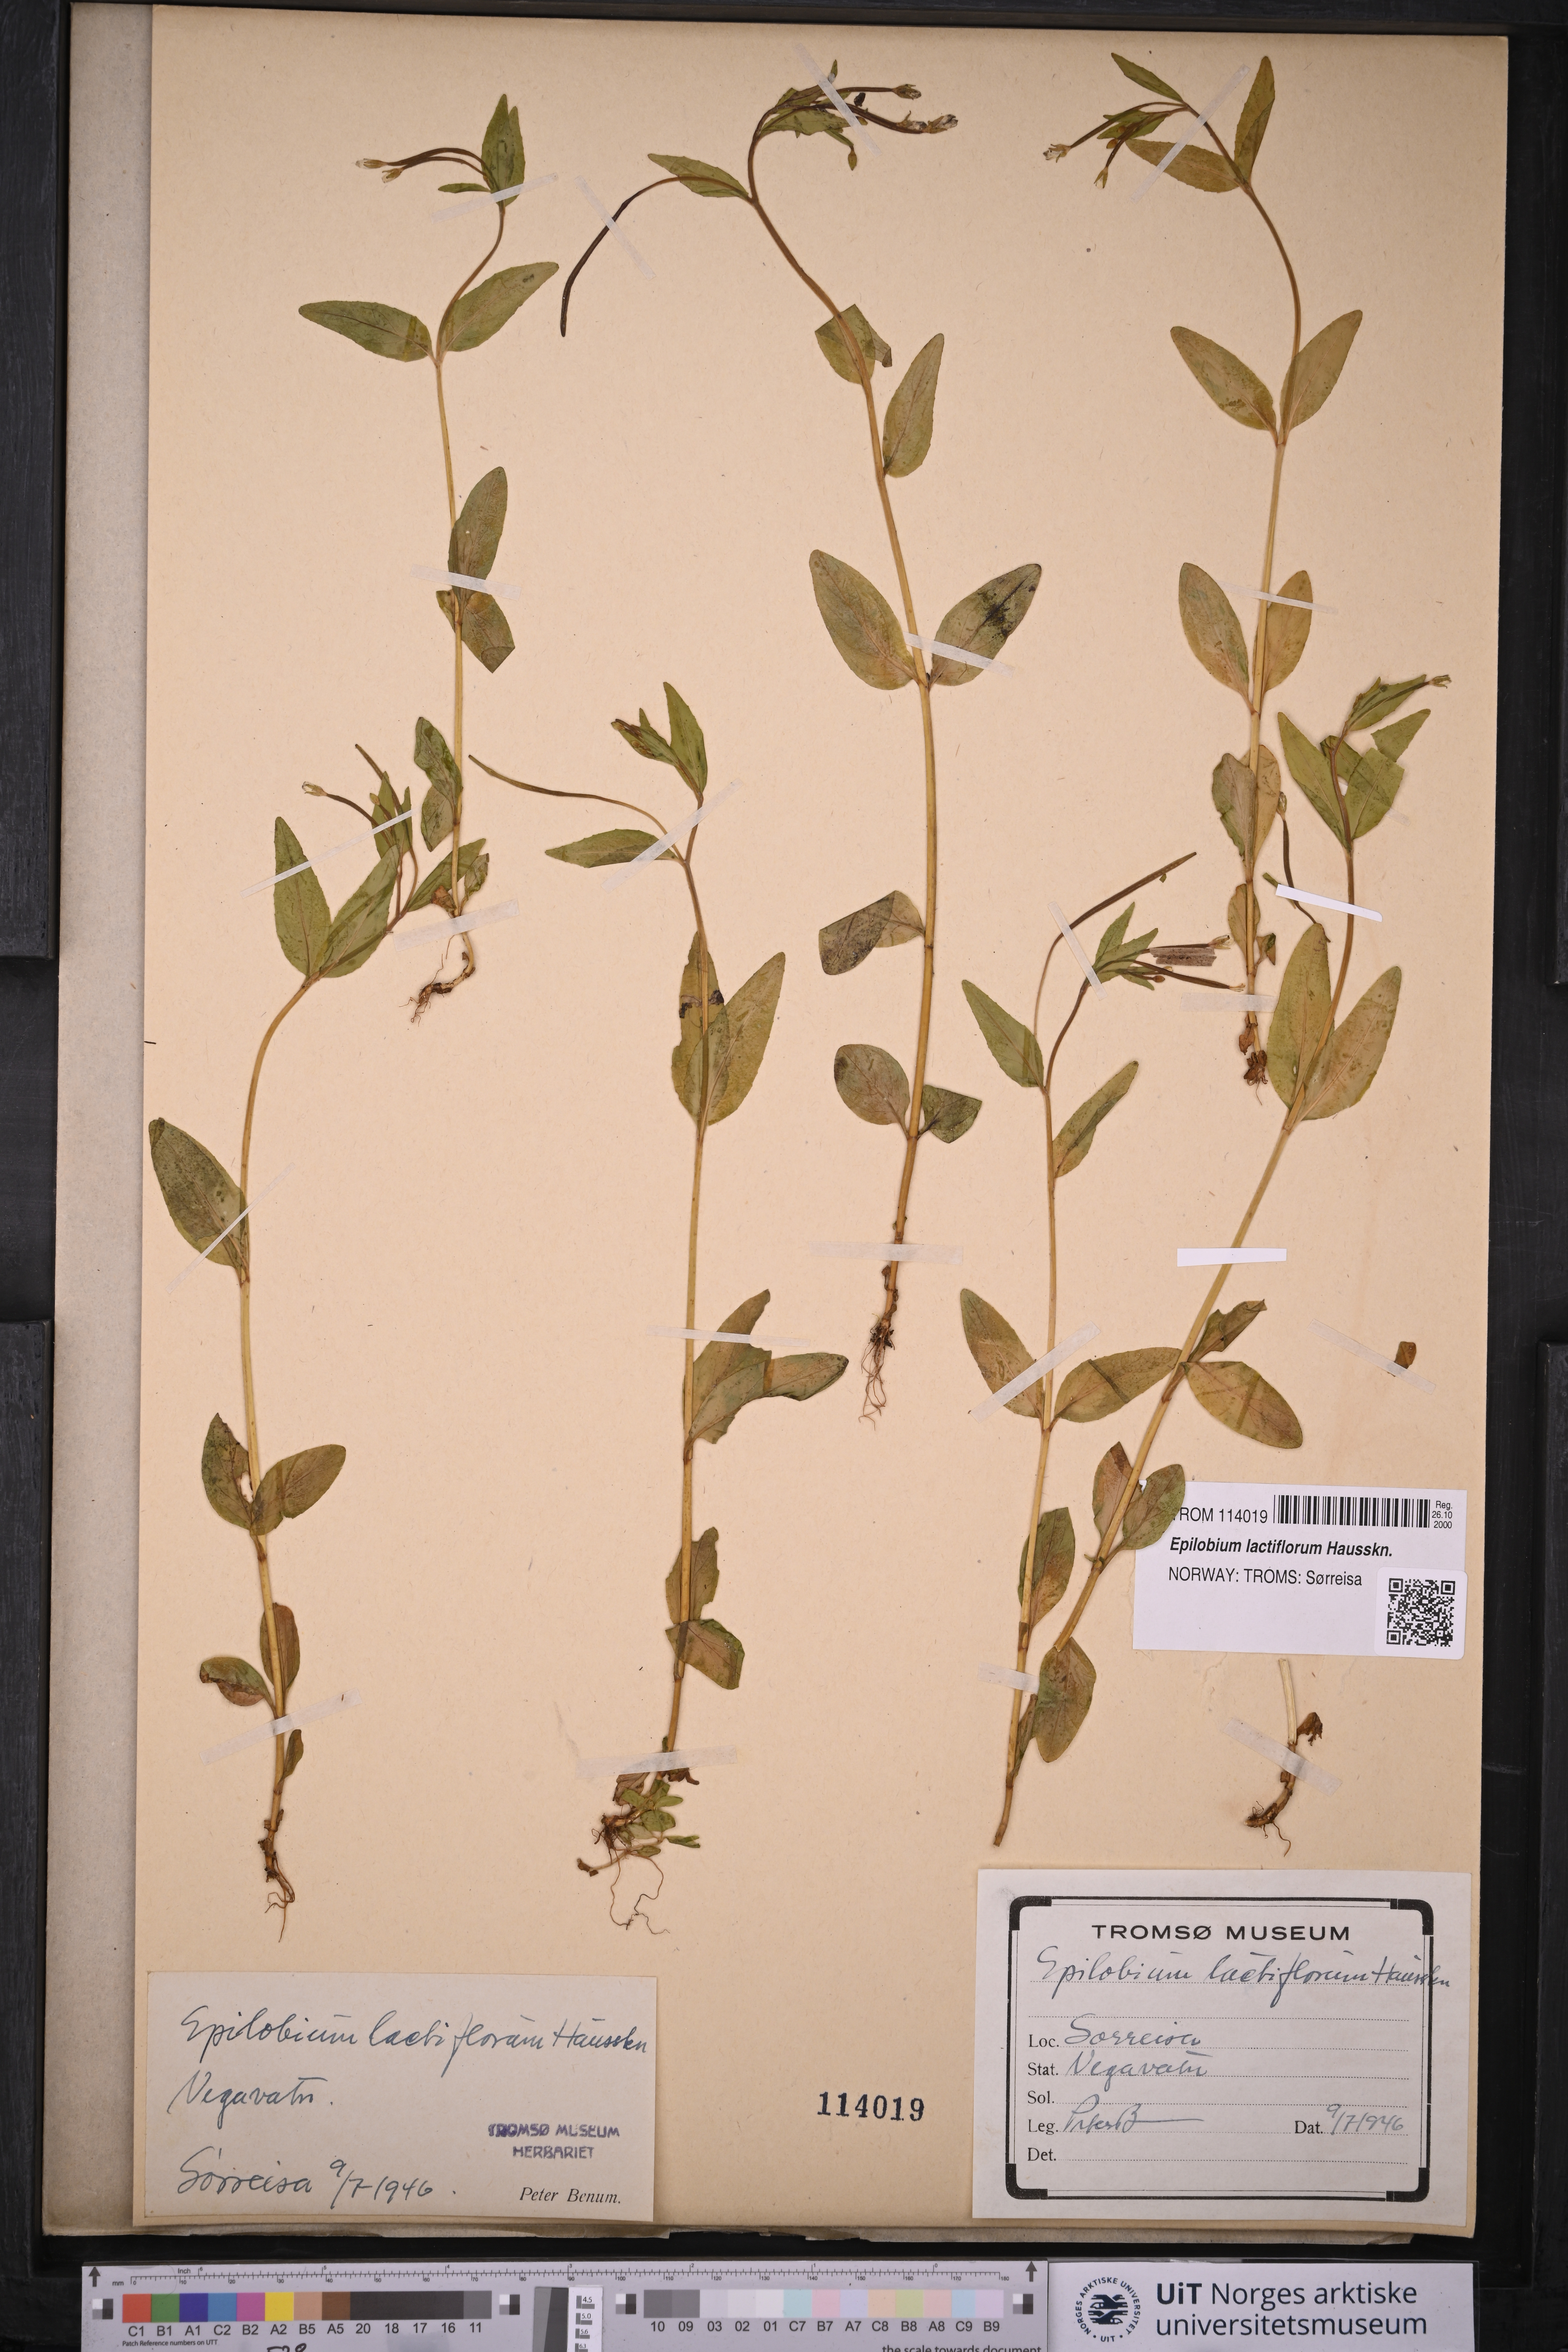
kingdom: Plantae
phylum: Tracheophyta
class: Magnoliopsida
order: Myrtales
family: Onagraceae
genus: Epilobium
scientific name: Epilobium lactiflorum
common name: Milkflower willowherb
